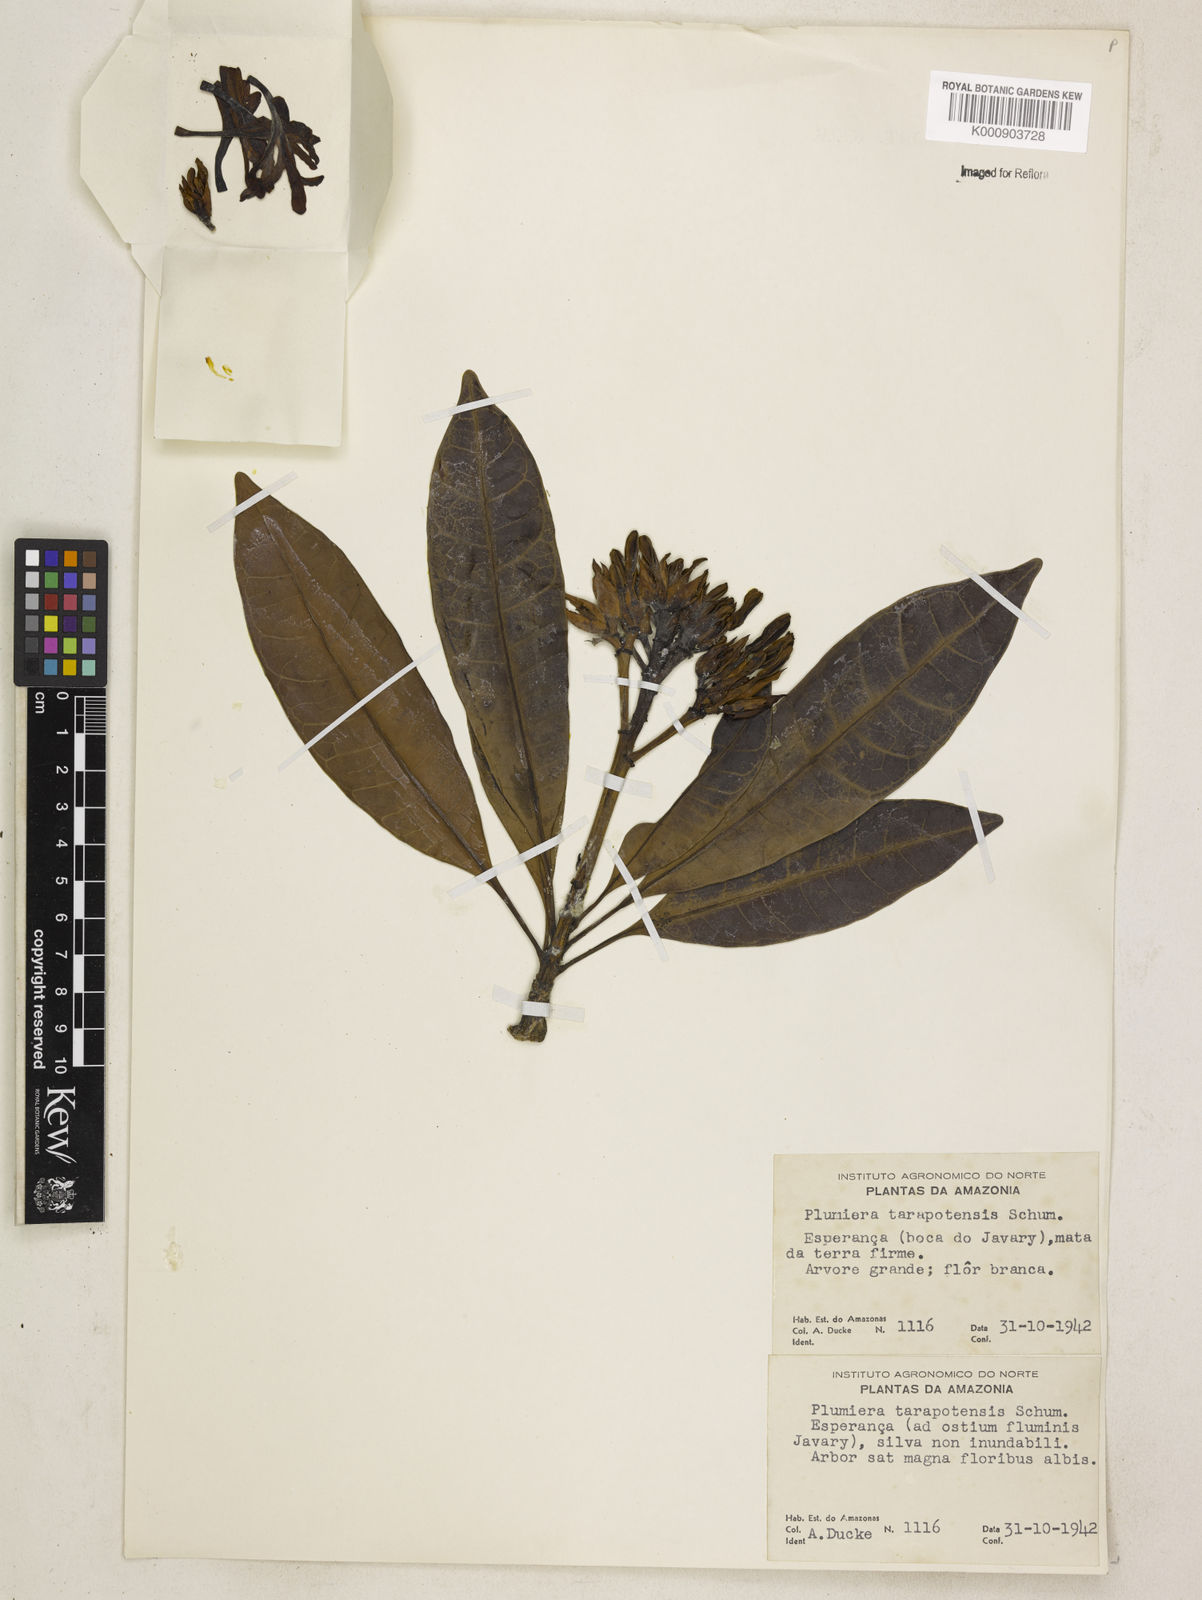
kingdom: Plantae
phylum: Tracheophyta
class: Magnoliopsida
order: Gentianales
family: Apocynaceae
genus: Himatanthus
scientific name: Himatanthus tarapotensis
